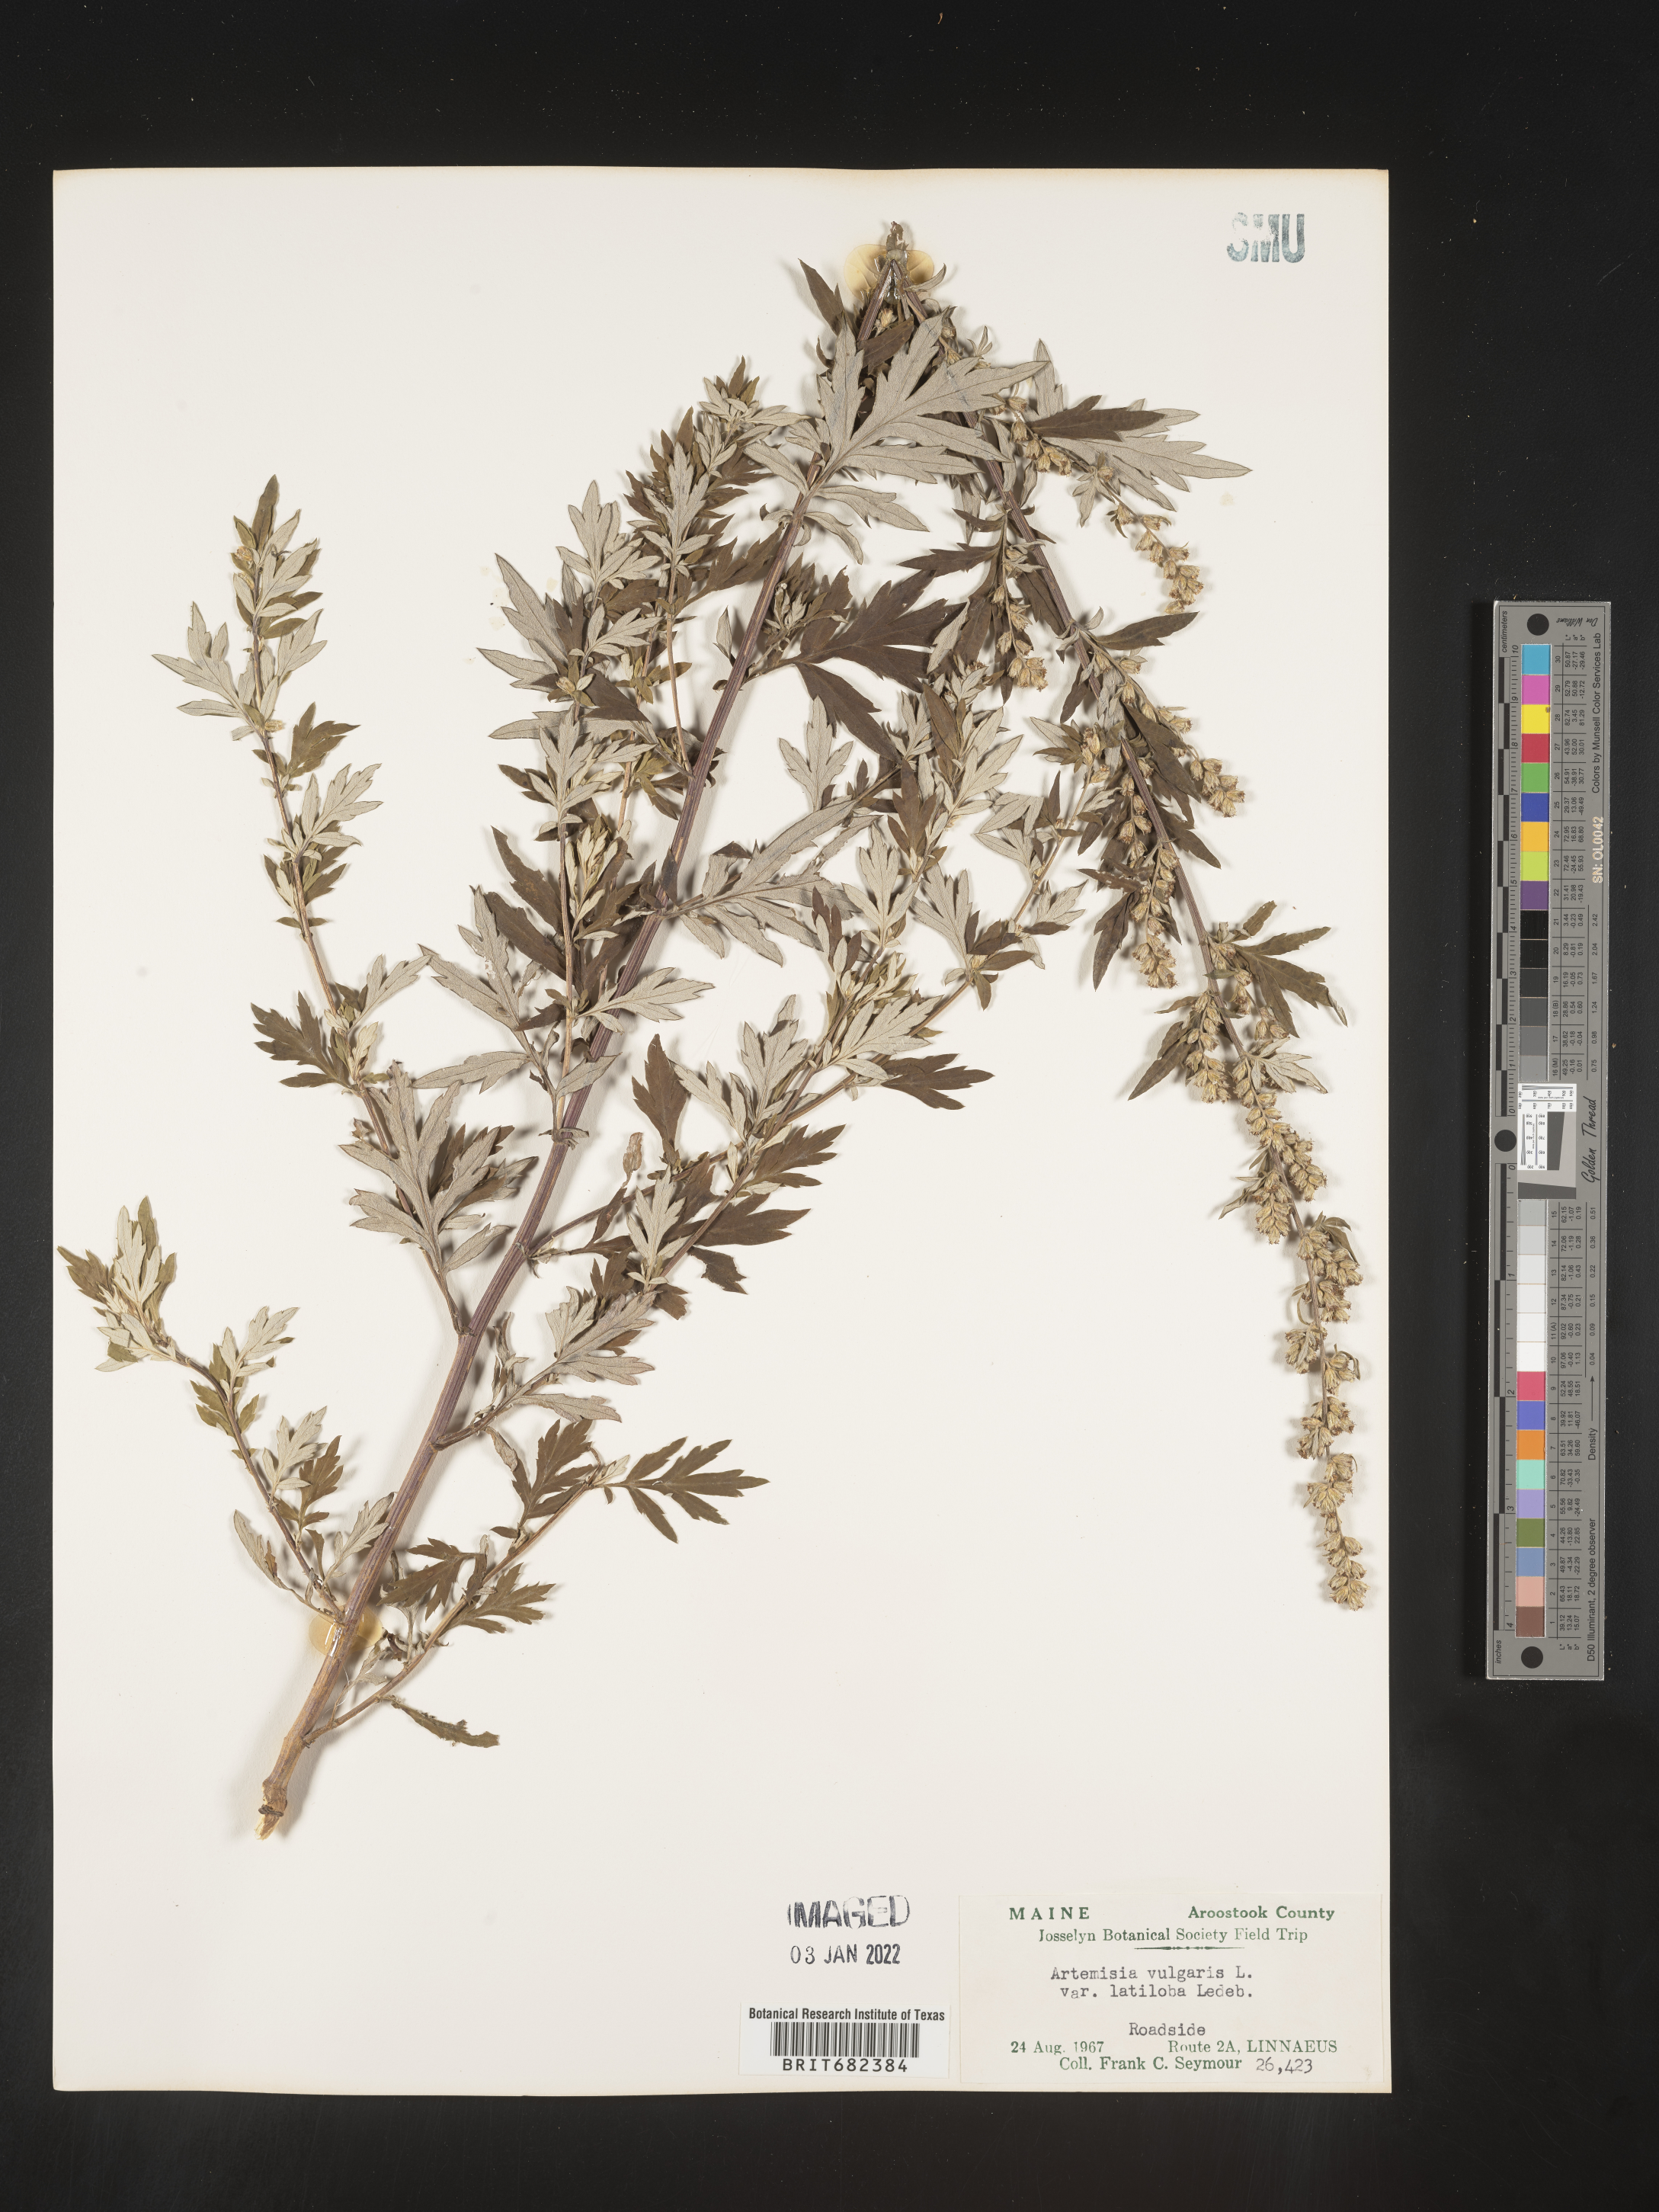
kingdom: Plantae
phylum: Tracheophyta
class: Magnoliopsida
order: Asterales
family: Asteraceae
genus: Artemisia
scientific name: Artemisia vulgaris
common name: Mugwort
